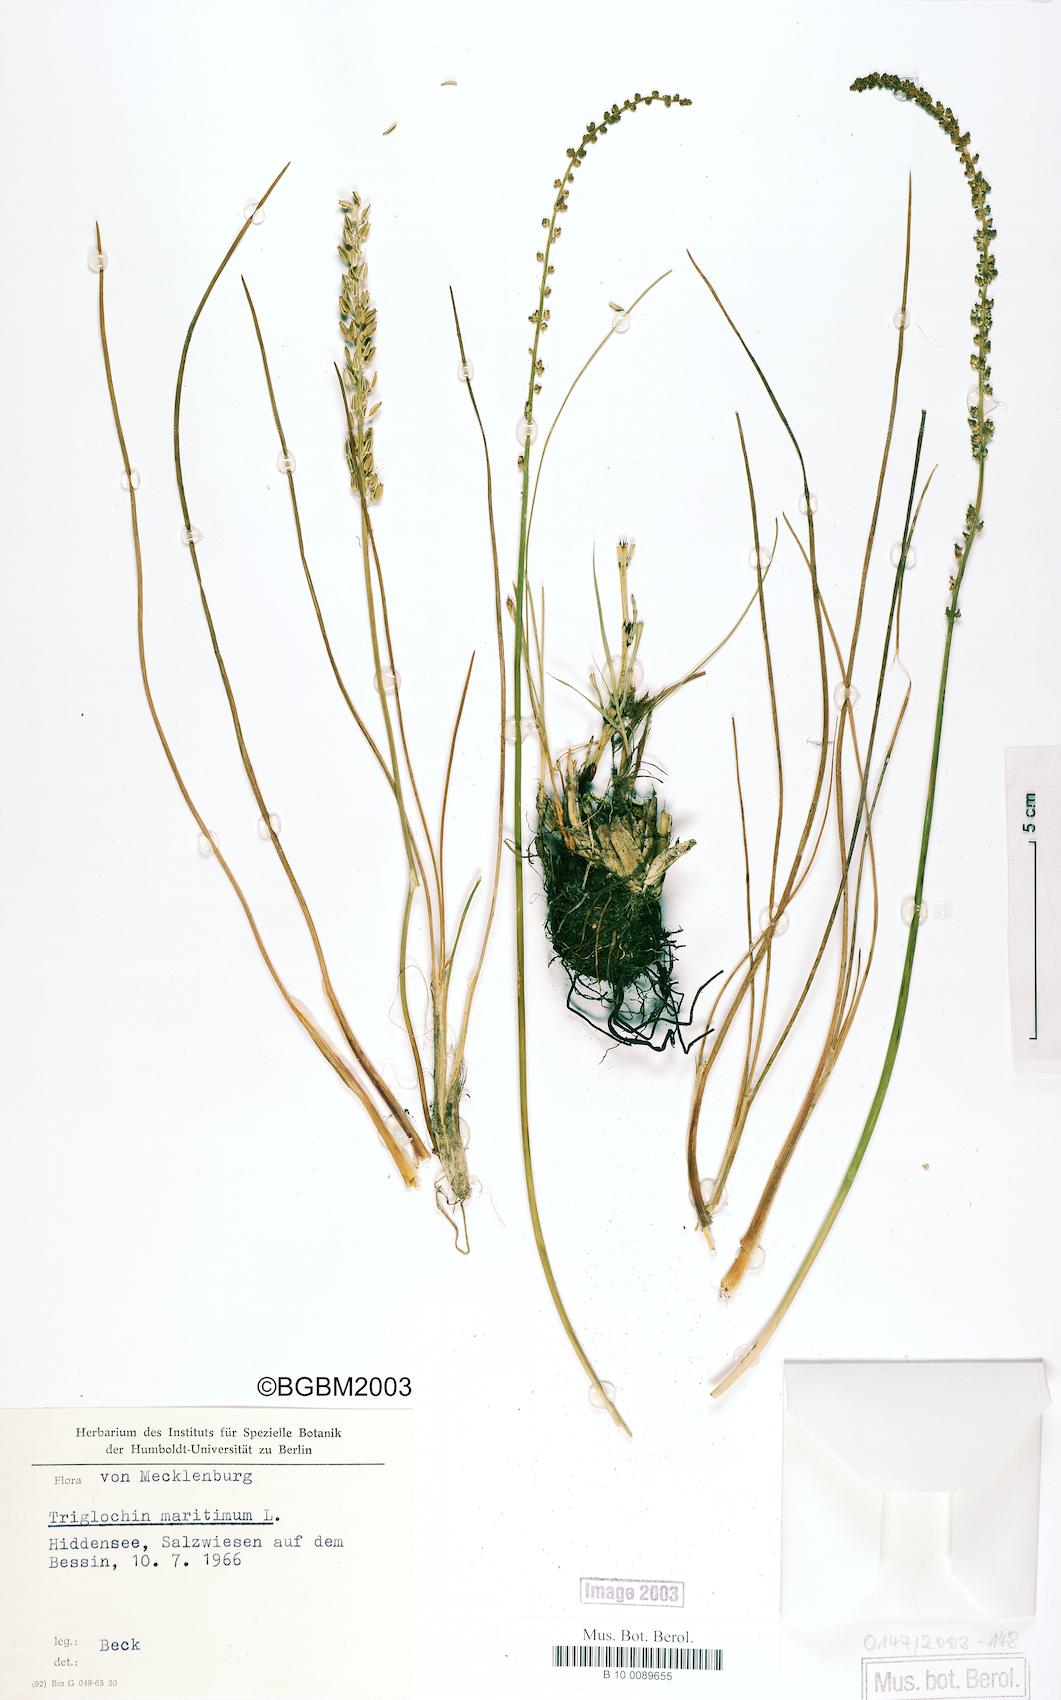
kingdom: Plantae
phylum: Tracheophyta
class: Liliopsida
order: Alismatales
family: Juncaginaceae
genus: Triglochin
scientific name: Triglochin maritima
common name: Sea arrowgrass
